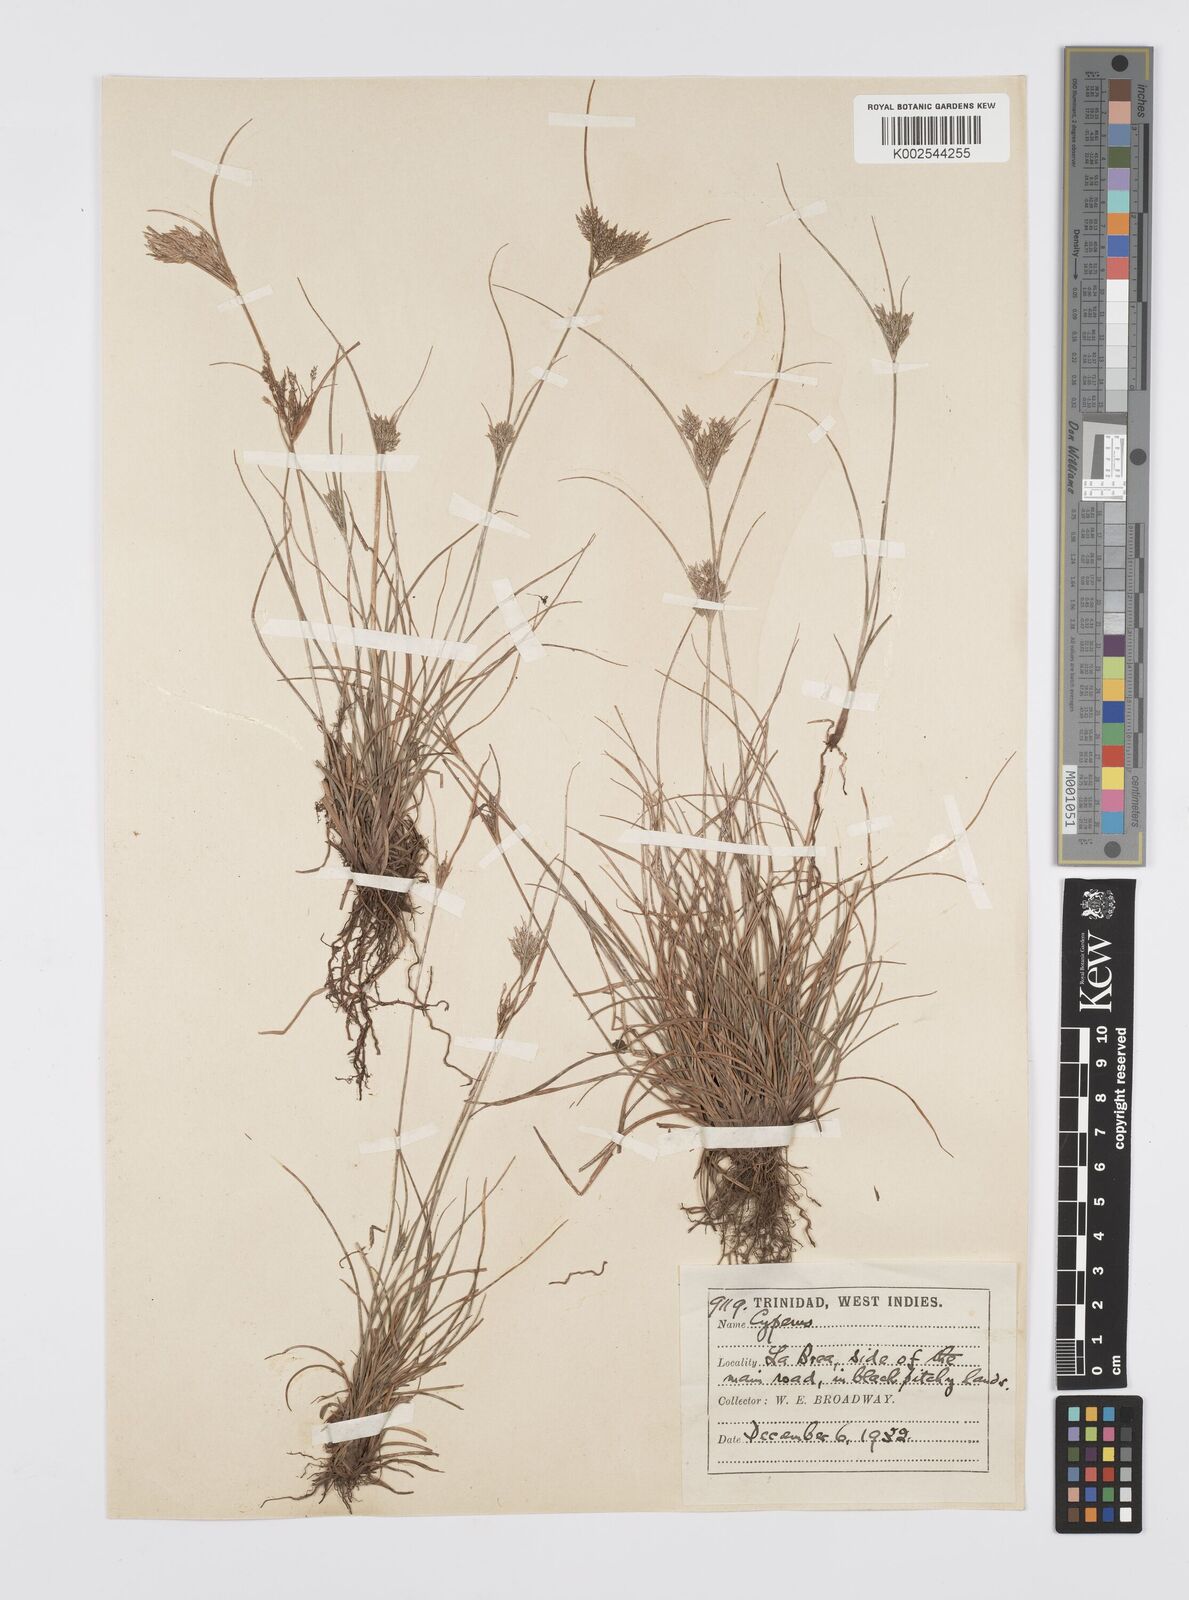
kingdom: Plantae
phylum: Tracheophyta
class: Liliopsida
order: Poales
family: Cyperaceae
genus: Cyperus
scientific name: Cyperus polystachyos
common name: Bunchy flat sedge
